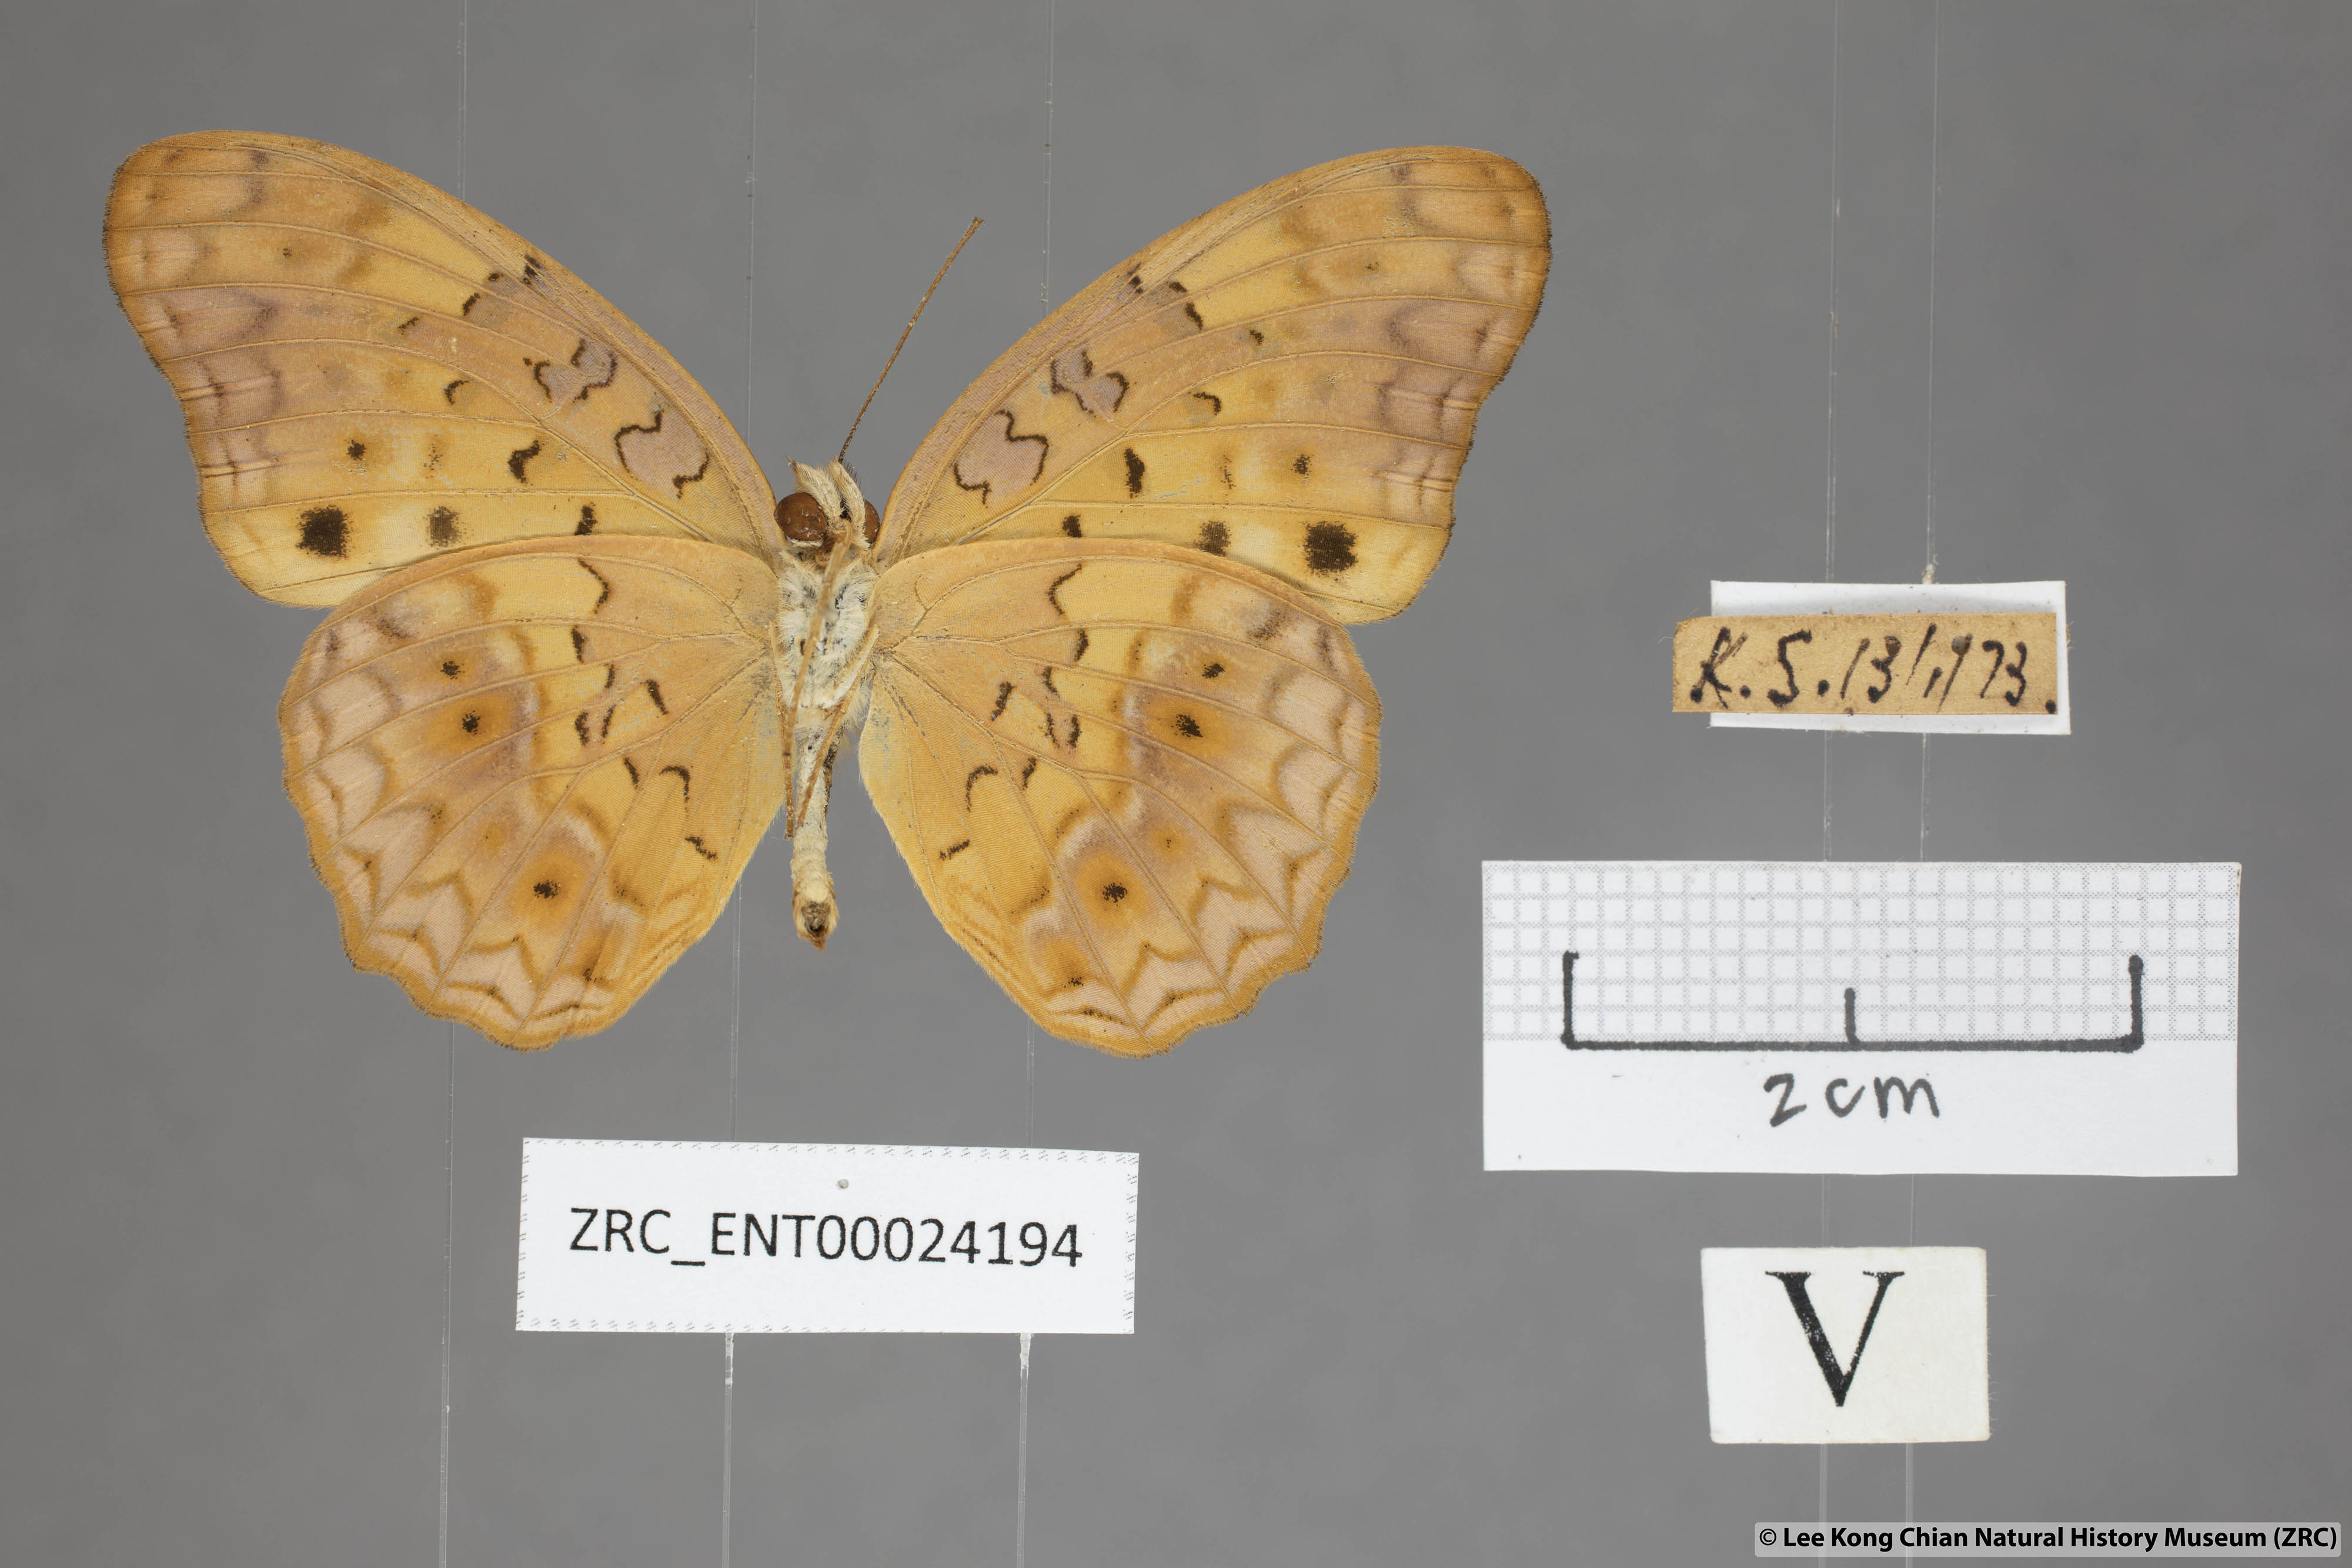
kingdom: Animalia
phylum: Arthropoda
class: Insecta
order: Lepidoptera
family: Nymphalidae
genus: Phalanta
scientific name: Phalanta phalantha
